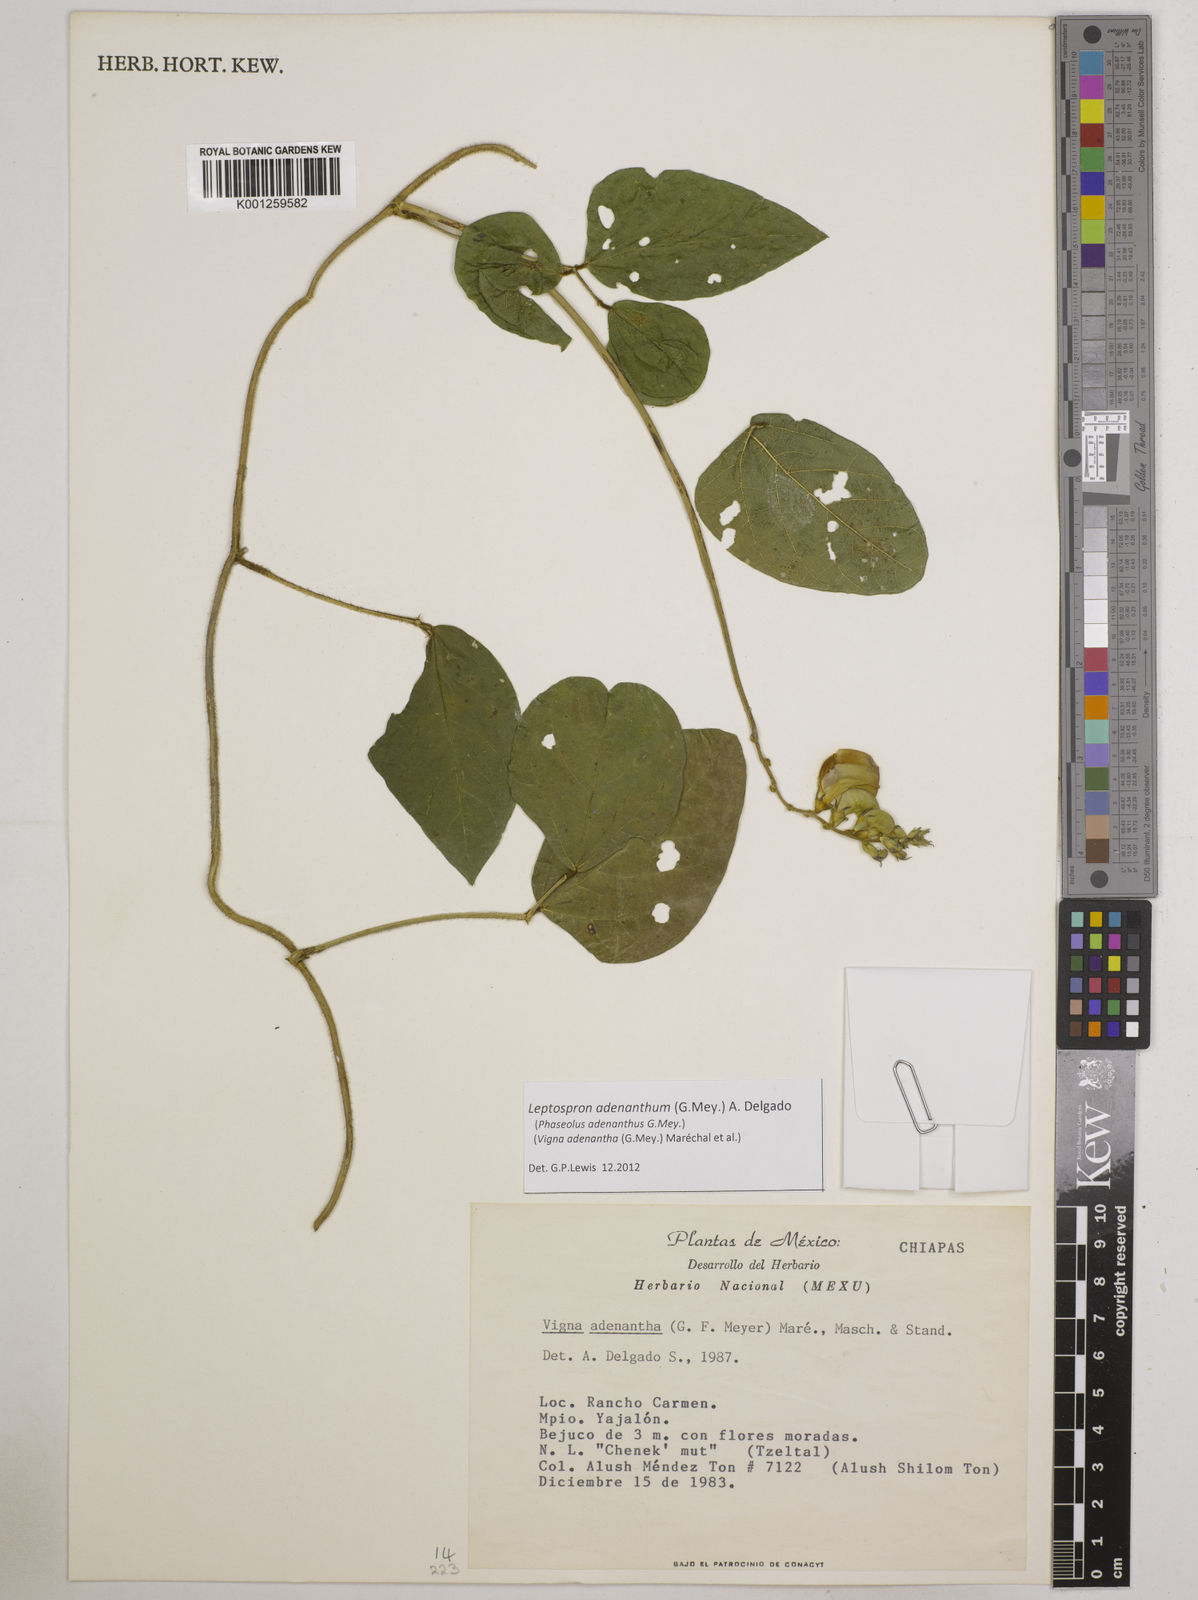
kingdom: Plantae
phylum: Tracheophyta
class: Magnoliopsida
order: Fabales
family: Fabaceae
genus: Leptospron
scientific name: Leptospron adenanthum
